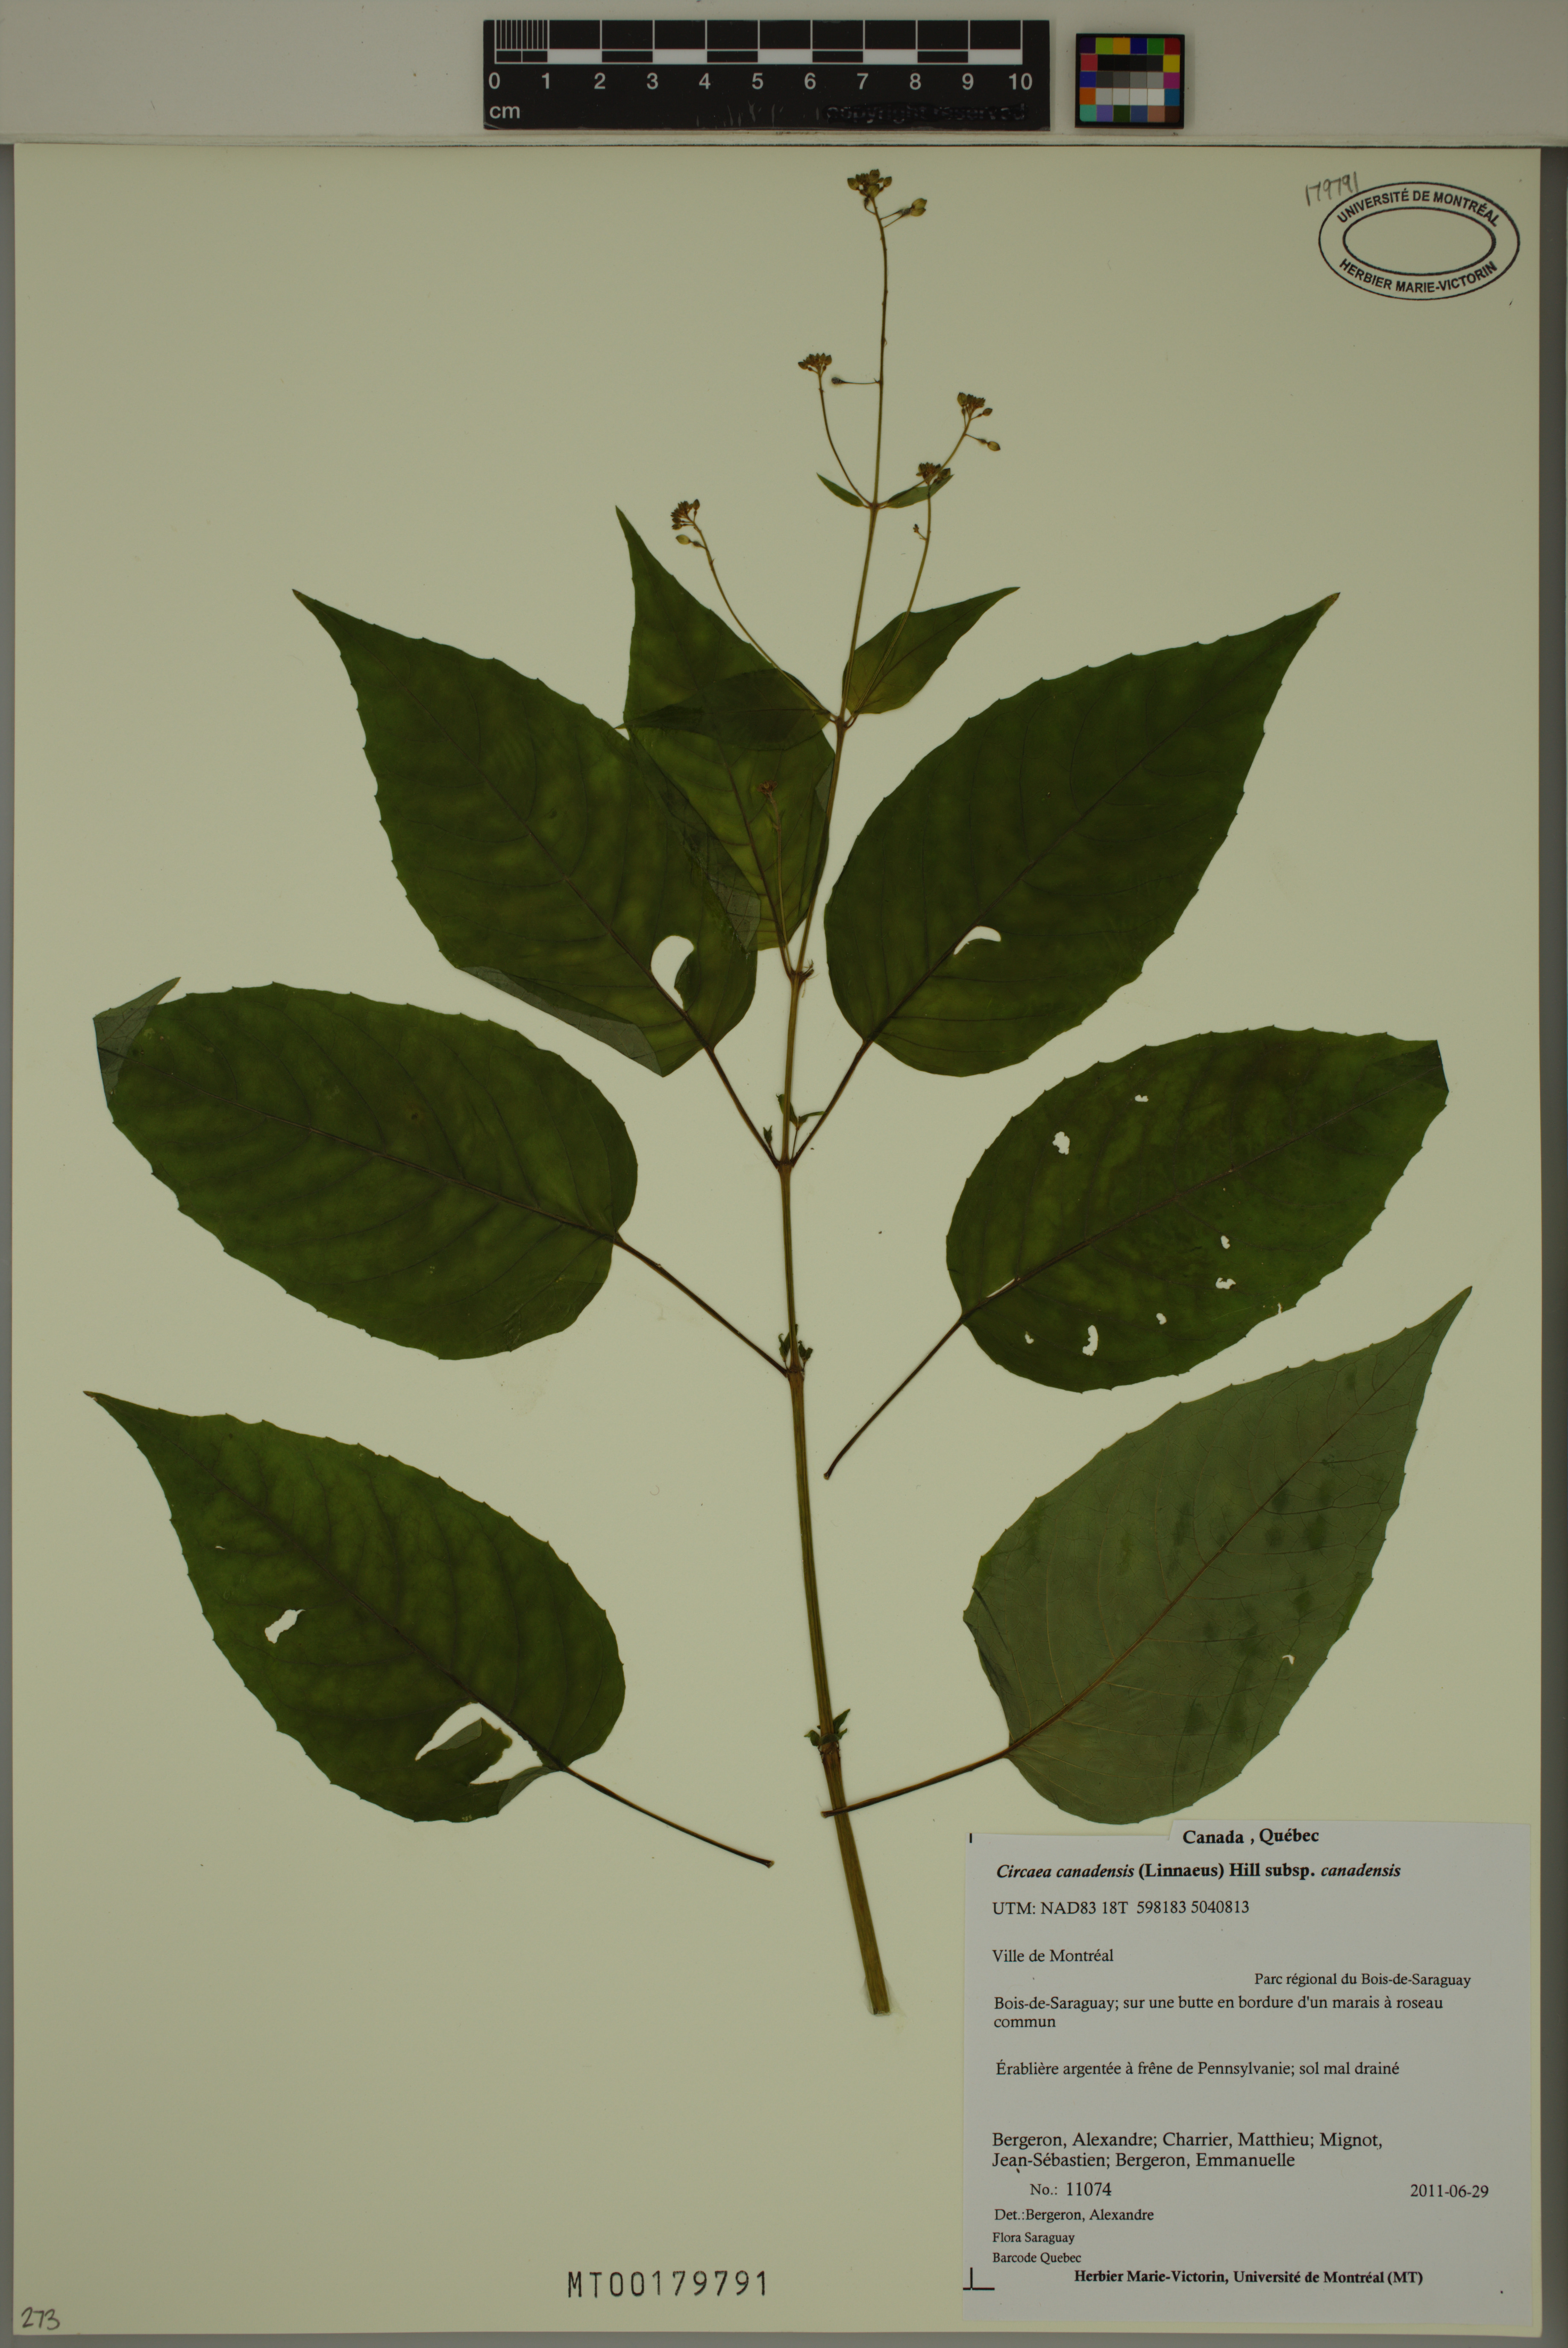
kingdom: Plantae
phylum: Tracheophyta
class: Magnoliopsida
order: Myrtales
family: Onagraceae
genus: Circaea
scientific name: Circaea canadensis
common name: Broad-leaved enchanter's nightshade
